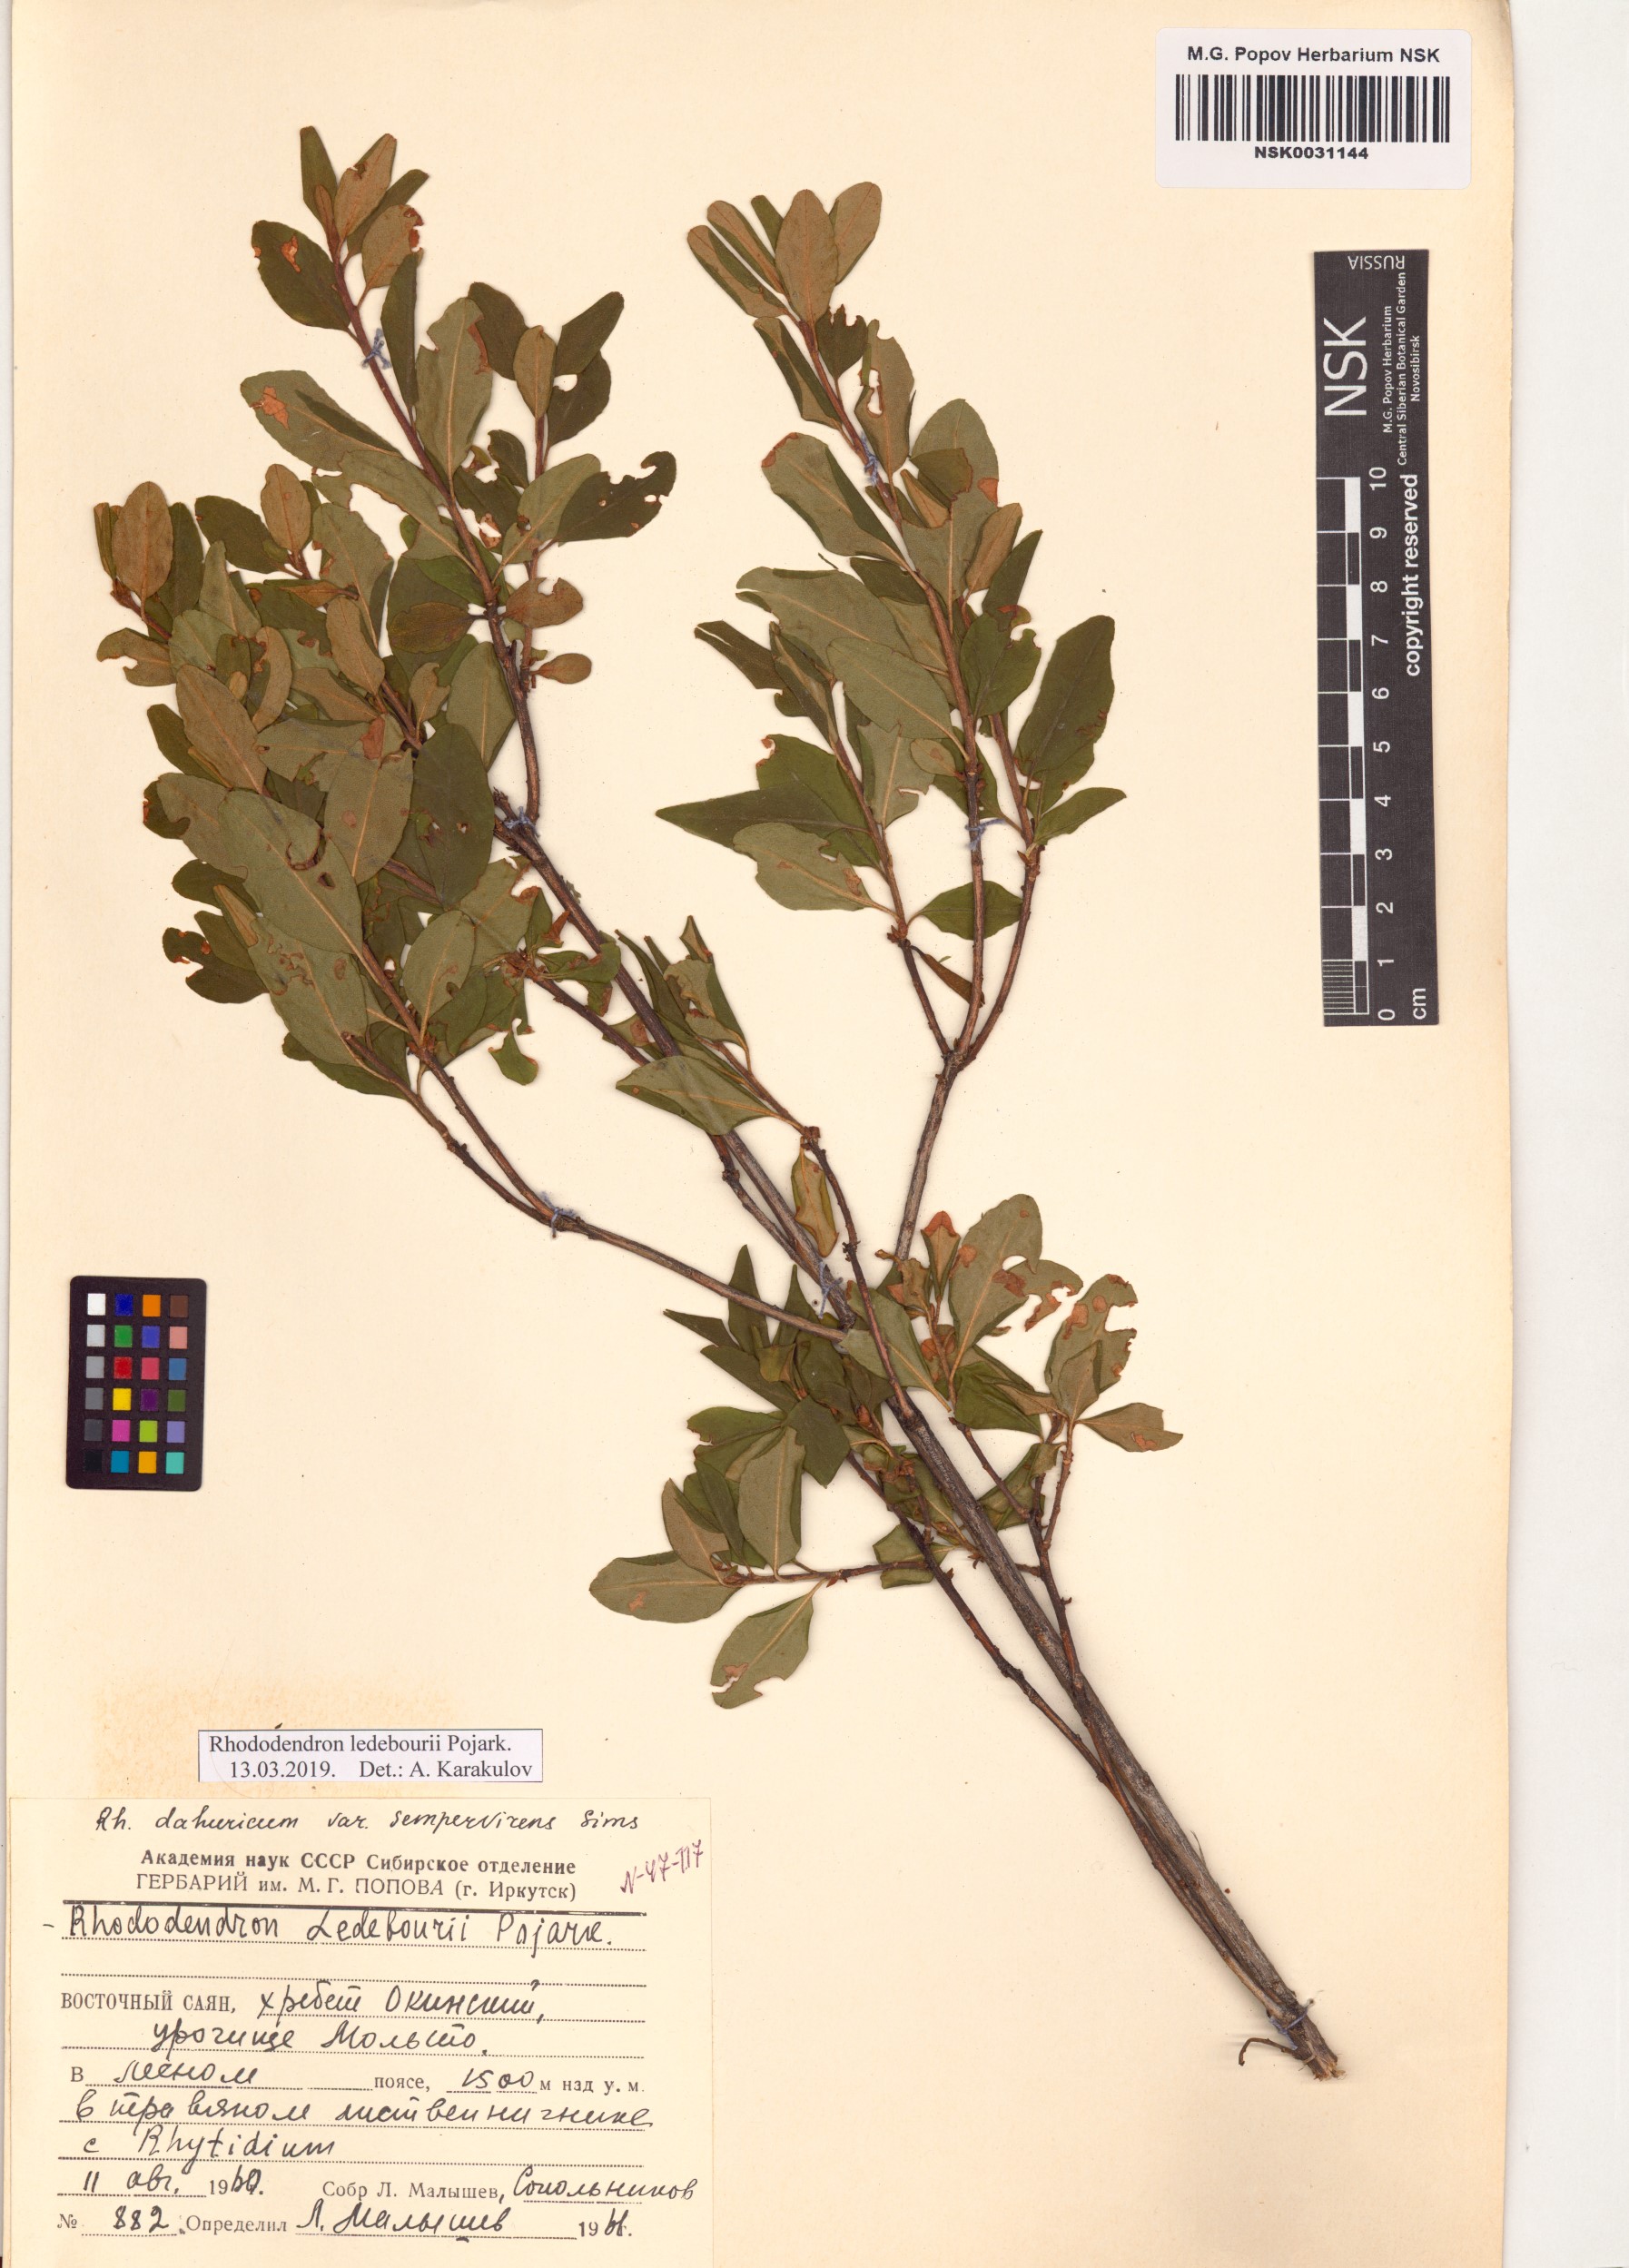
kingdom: Plantae
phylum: Tracheophyta
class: Magnoliopsida
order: Ericales
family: Ericaceae
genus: Rhododendron
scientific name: Rhododendron dauricum
